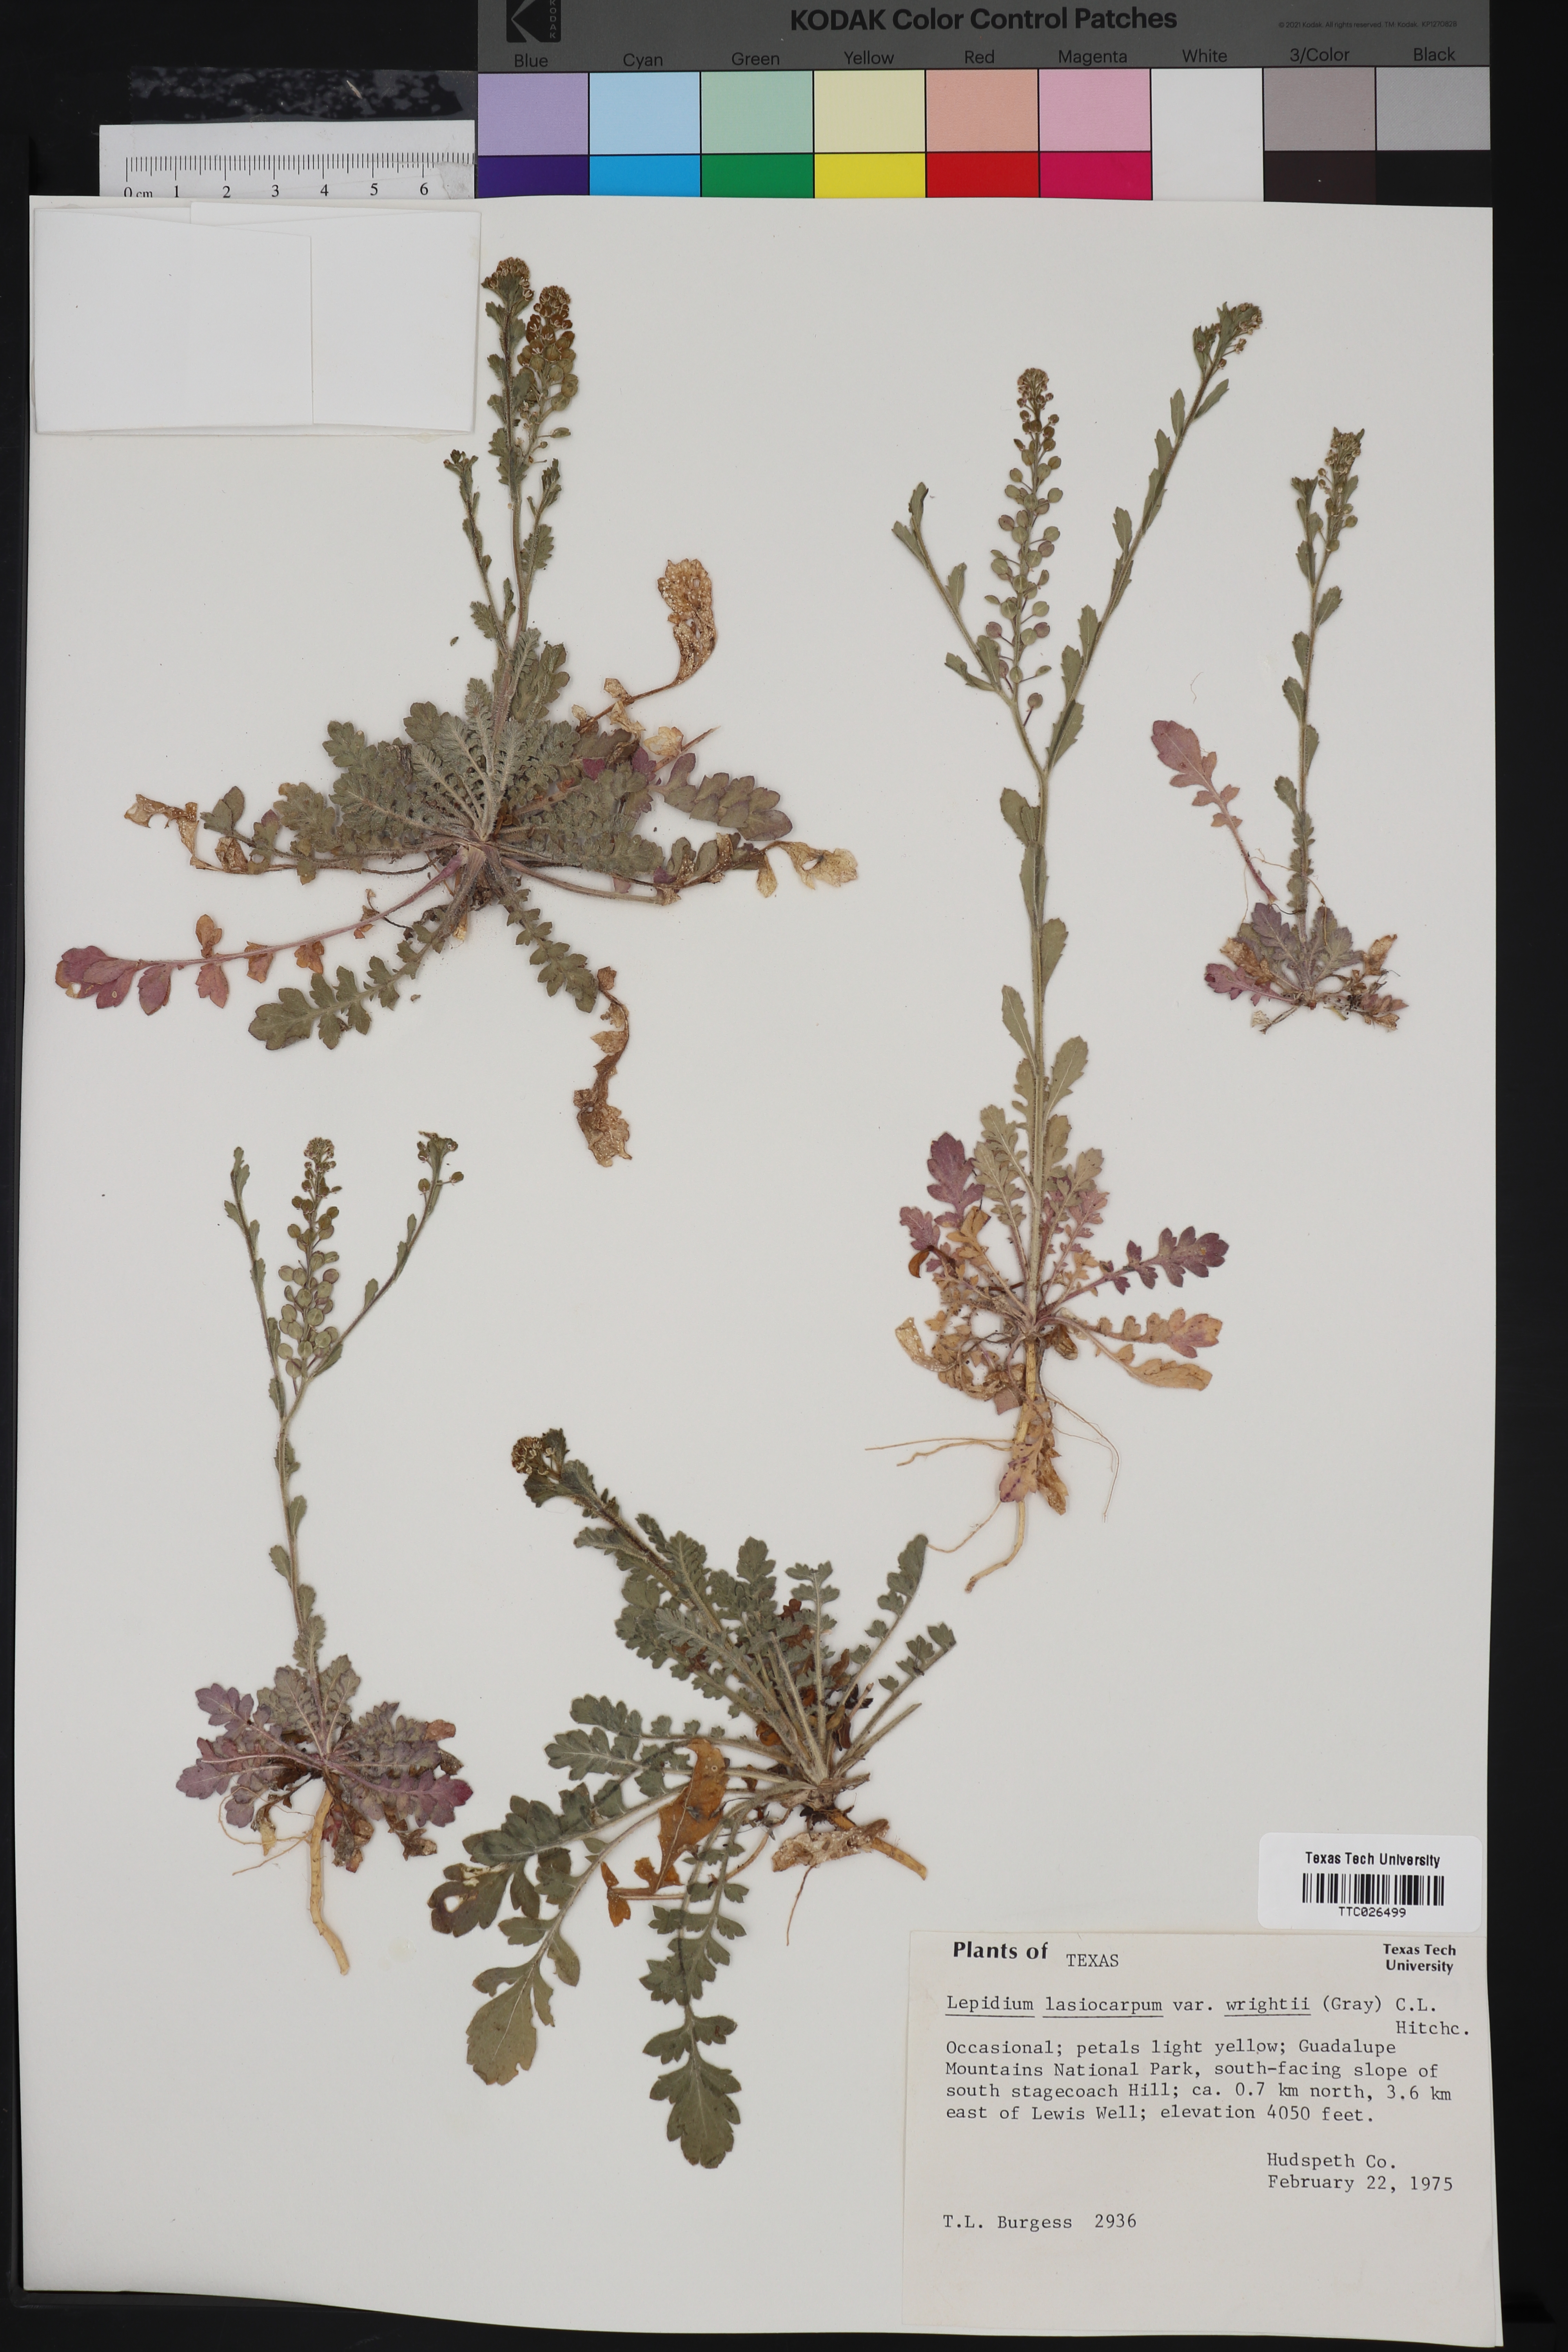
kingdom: Plantae
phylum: Tracheophyta
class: Magnoliopsida
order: Brassicales
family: Brassicaceae
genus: Lepidium
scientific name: Lepidium lasiocarpum
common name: Hairy-pod pepperwort
